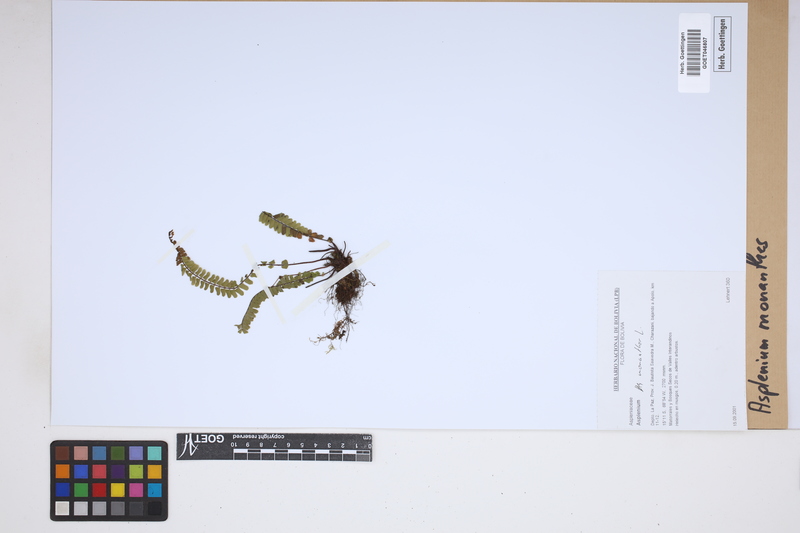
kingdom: Plantae
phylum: Tracheophyta
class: Polypodiopsida
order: Polypodiales
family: Aspleniaceae
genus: Asplenium
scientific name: Asplenium monanthes
